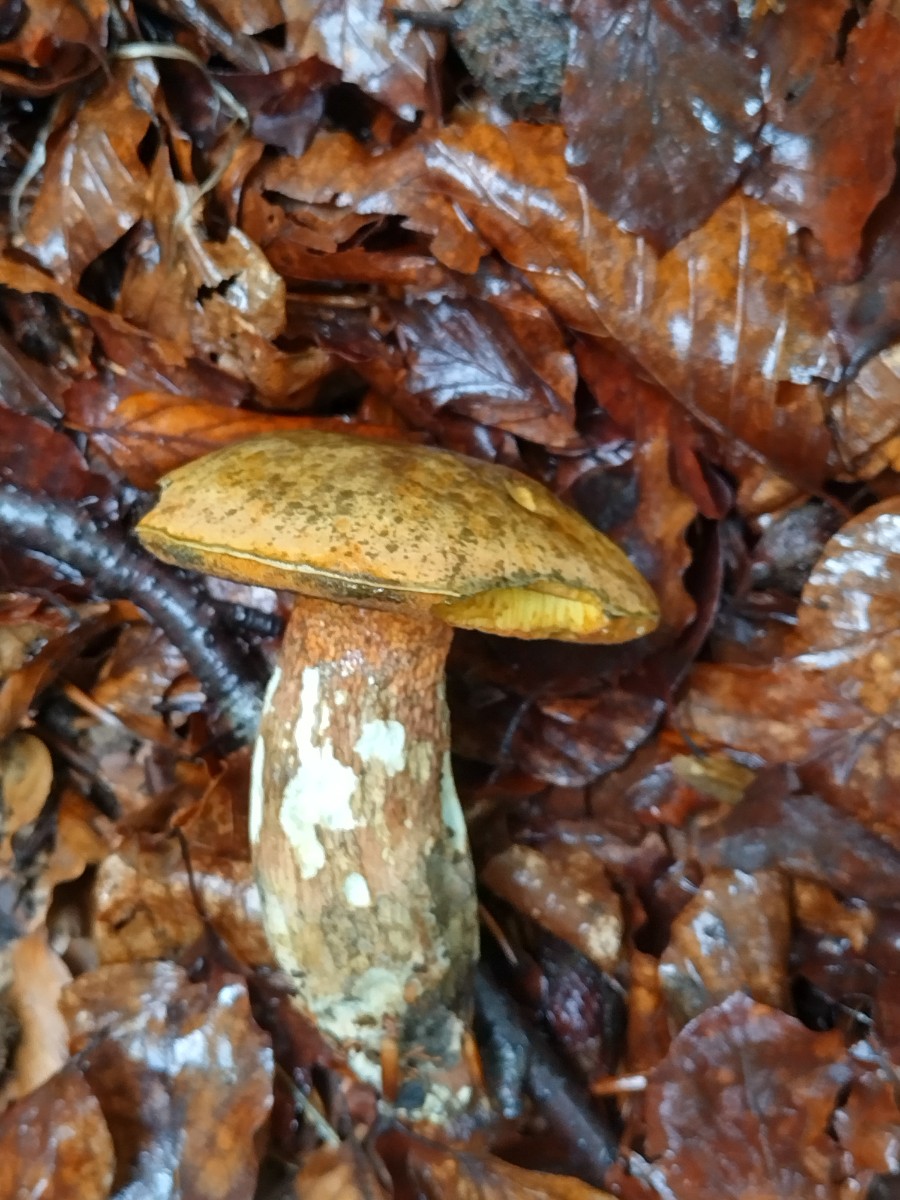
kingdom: Fungi
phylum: Basidiomycota
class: Agaricomycetes
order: Boletales
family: Boletaceae
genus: Suillellus
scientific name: Suillellus luridus
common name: netstokket indigorørhat
